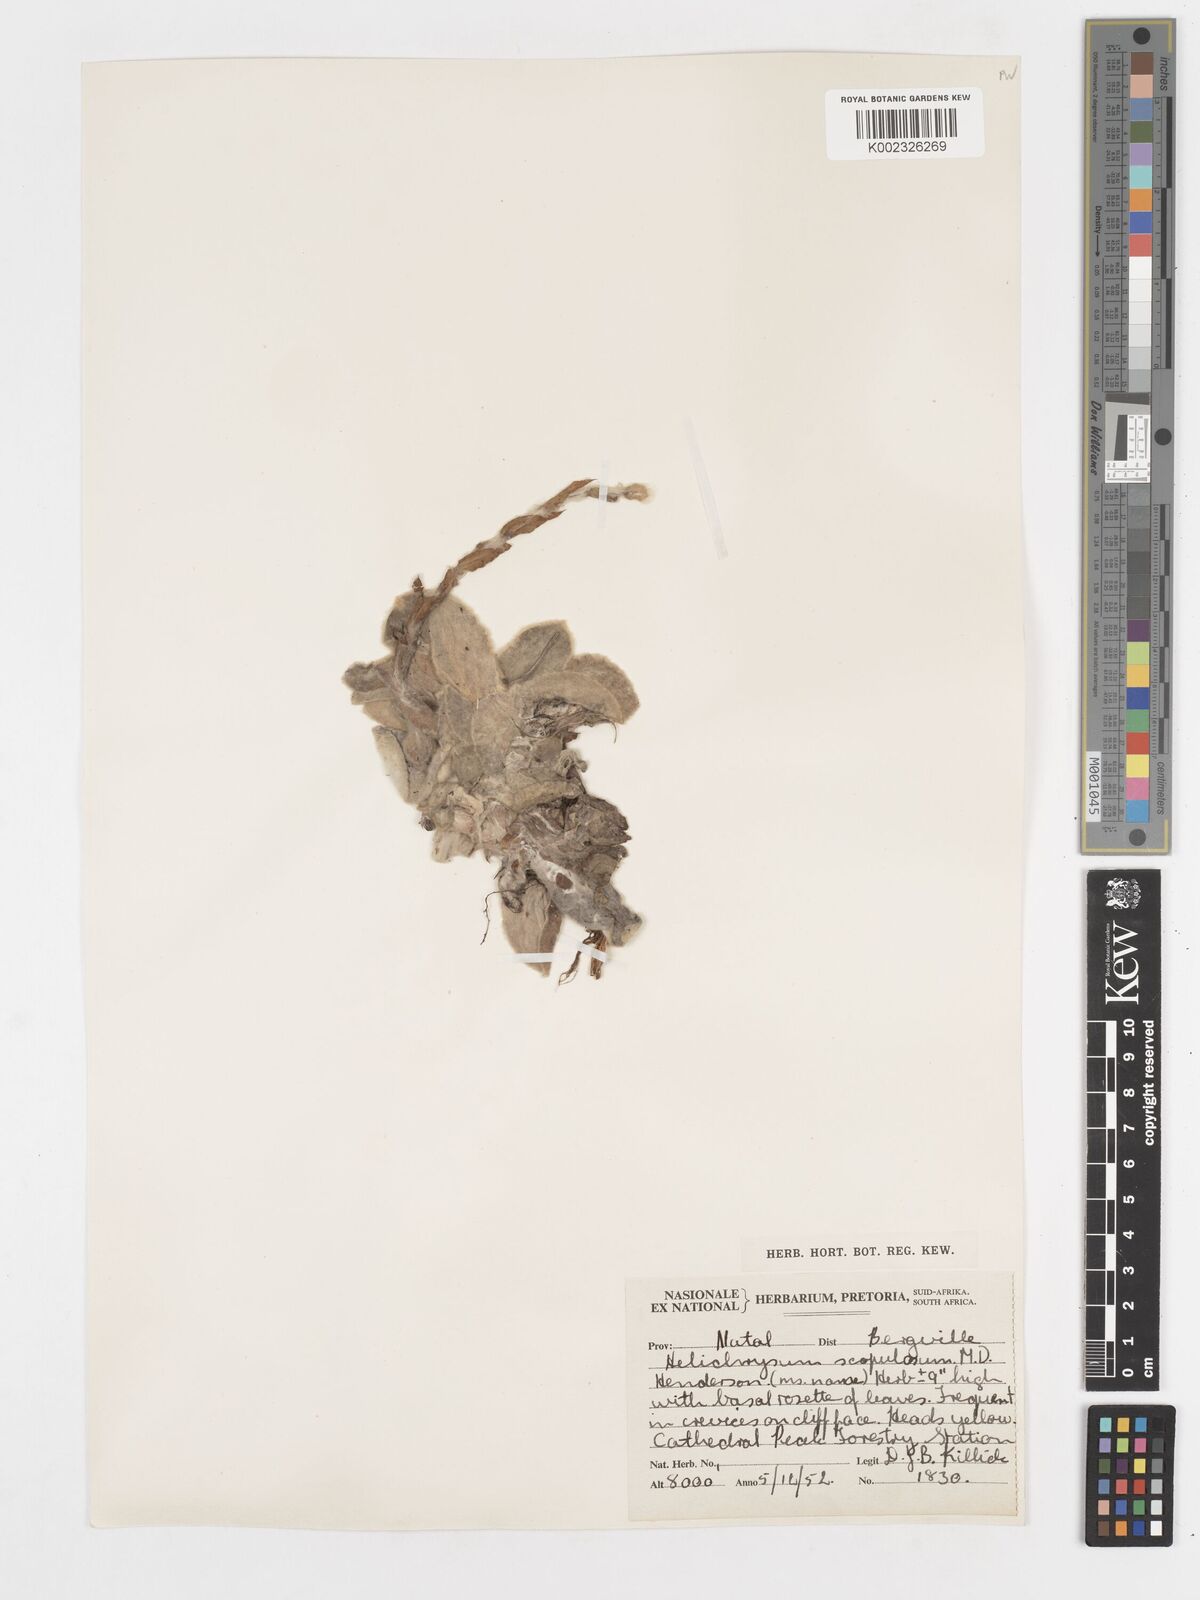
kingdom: Plantae
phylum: Tracheophyta
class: Magnoliopsida
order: Asterales
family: Asteraceae
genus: Helichrysum
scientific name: Helichrysum aureum
